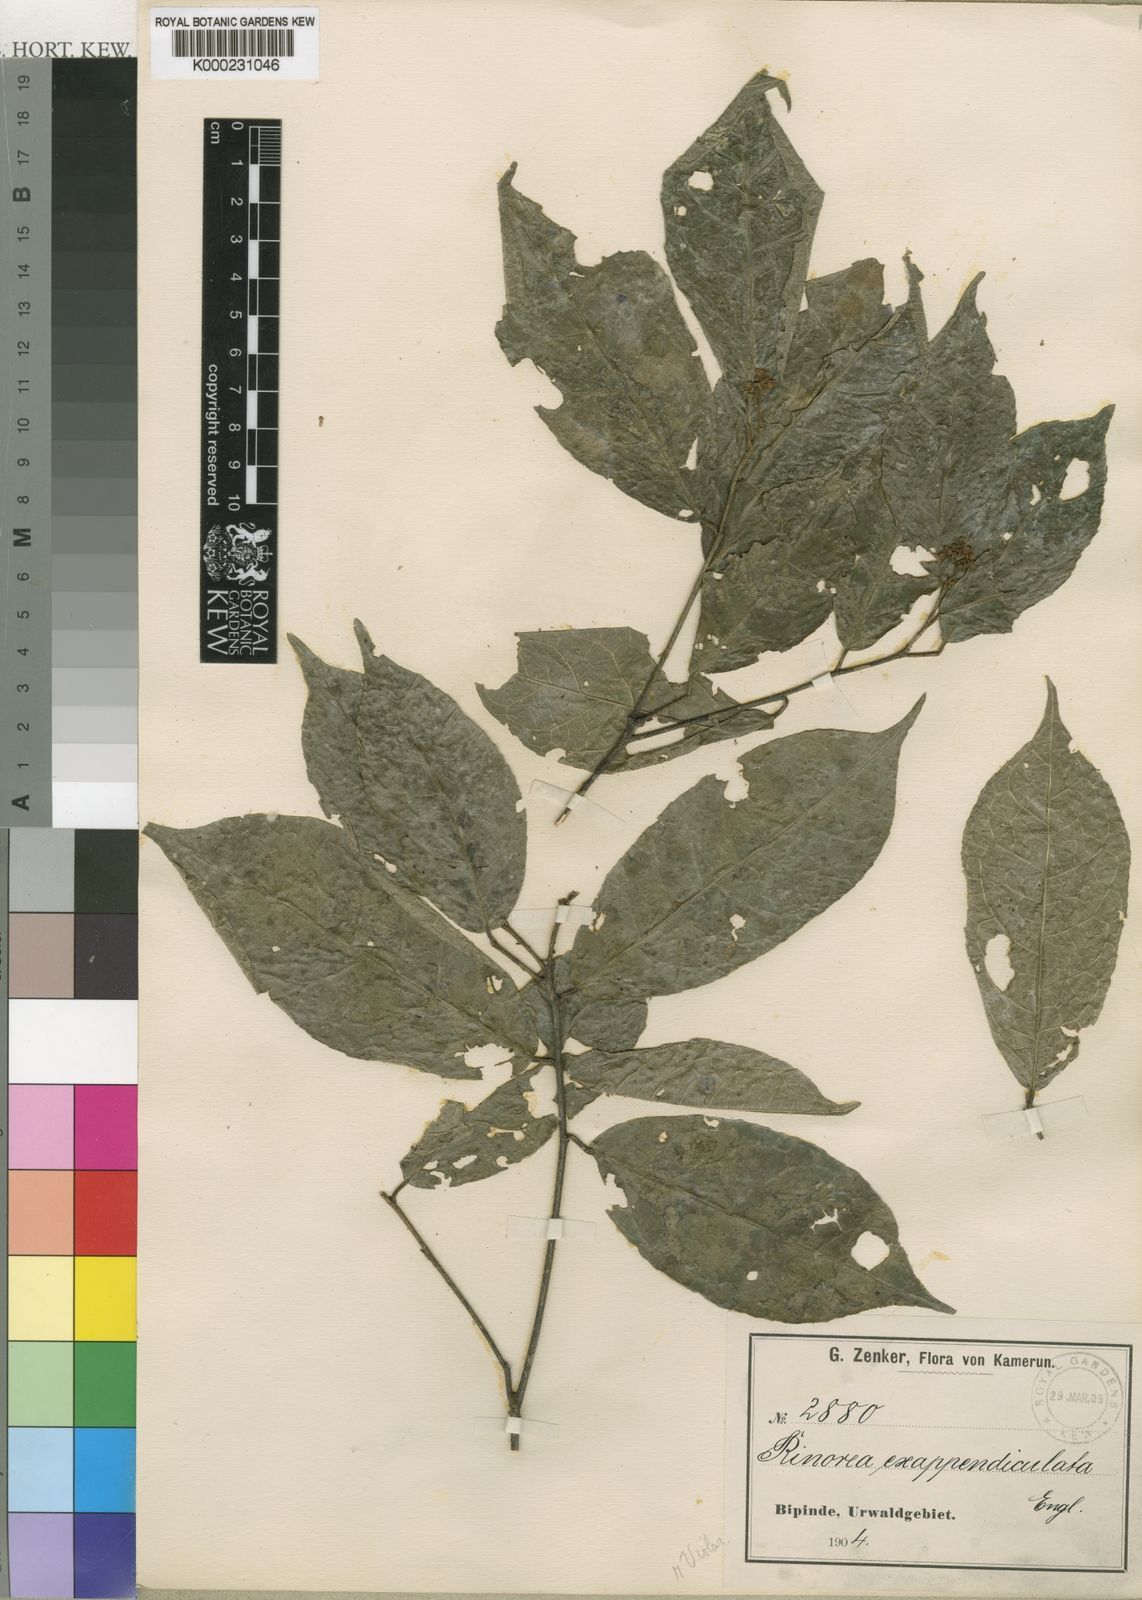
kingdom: Plantae
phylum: Tracheophyta
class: Magnoliopsida
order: Malpighiales
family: Violaceae
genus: Rinorea
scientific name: Rinorea exappendiculata
